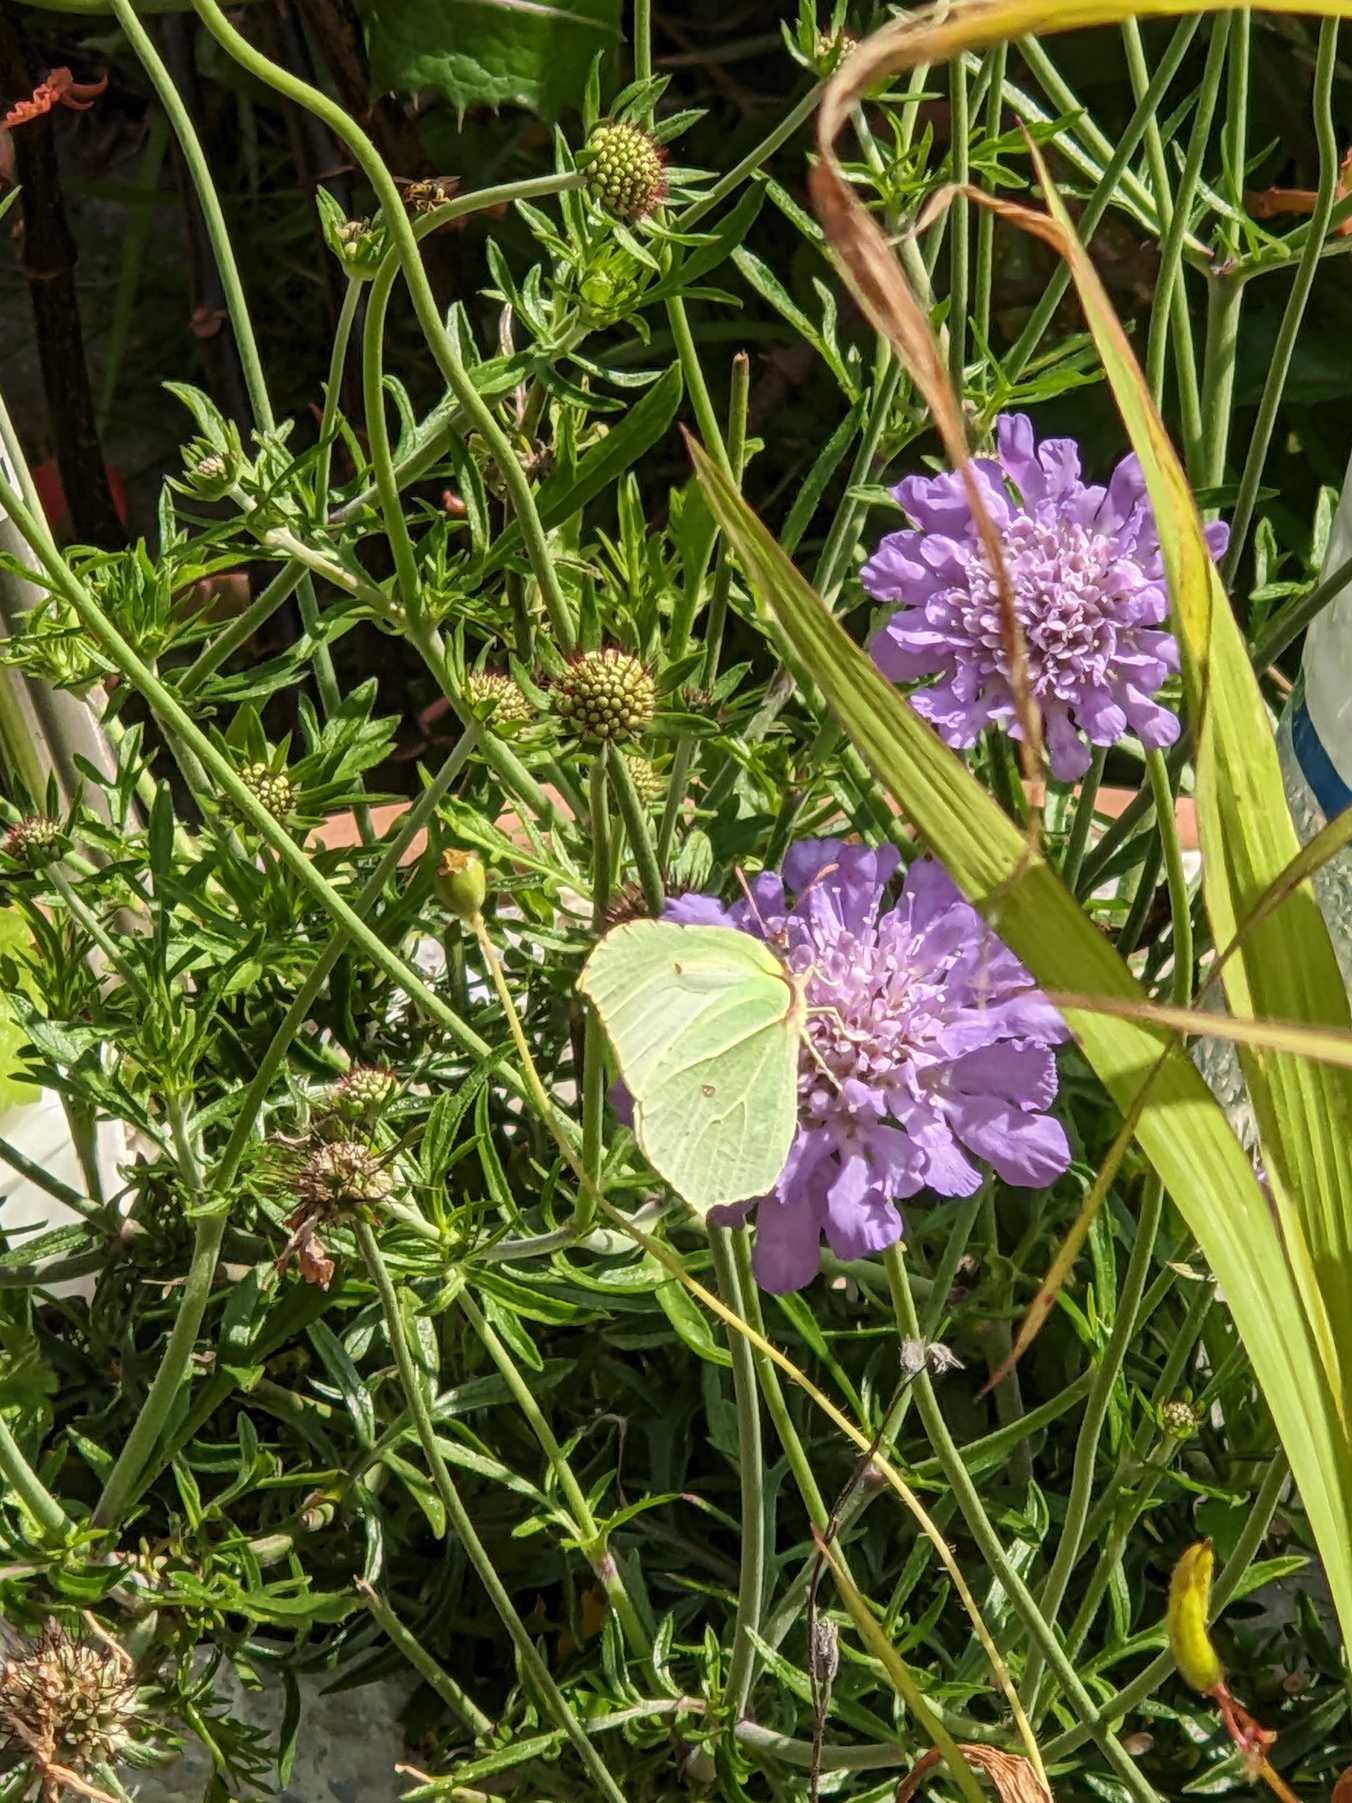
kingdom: Animalia
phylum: Arthropoda
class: Insecta
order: Lepidoptera
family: Pieridae
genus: Gonepteryx
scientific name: Gonepteryx rhamni
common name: Citronsommerfugl
